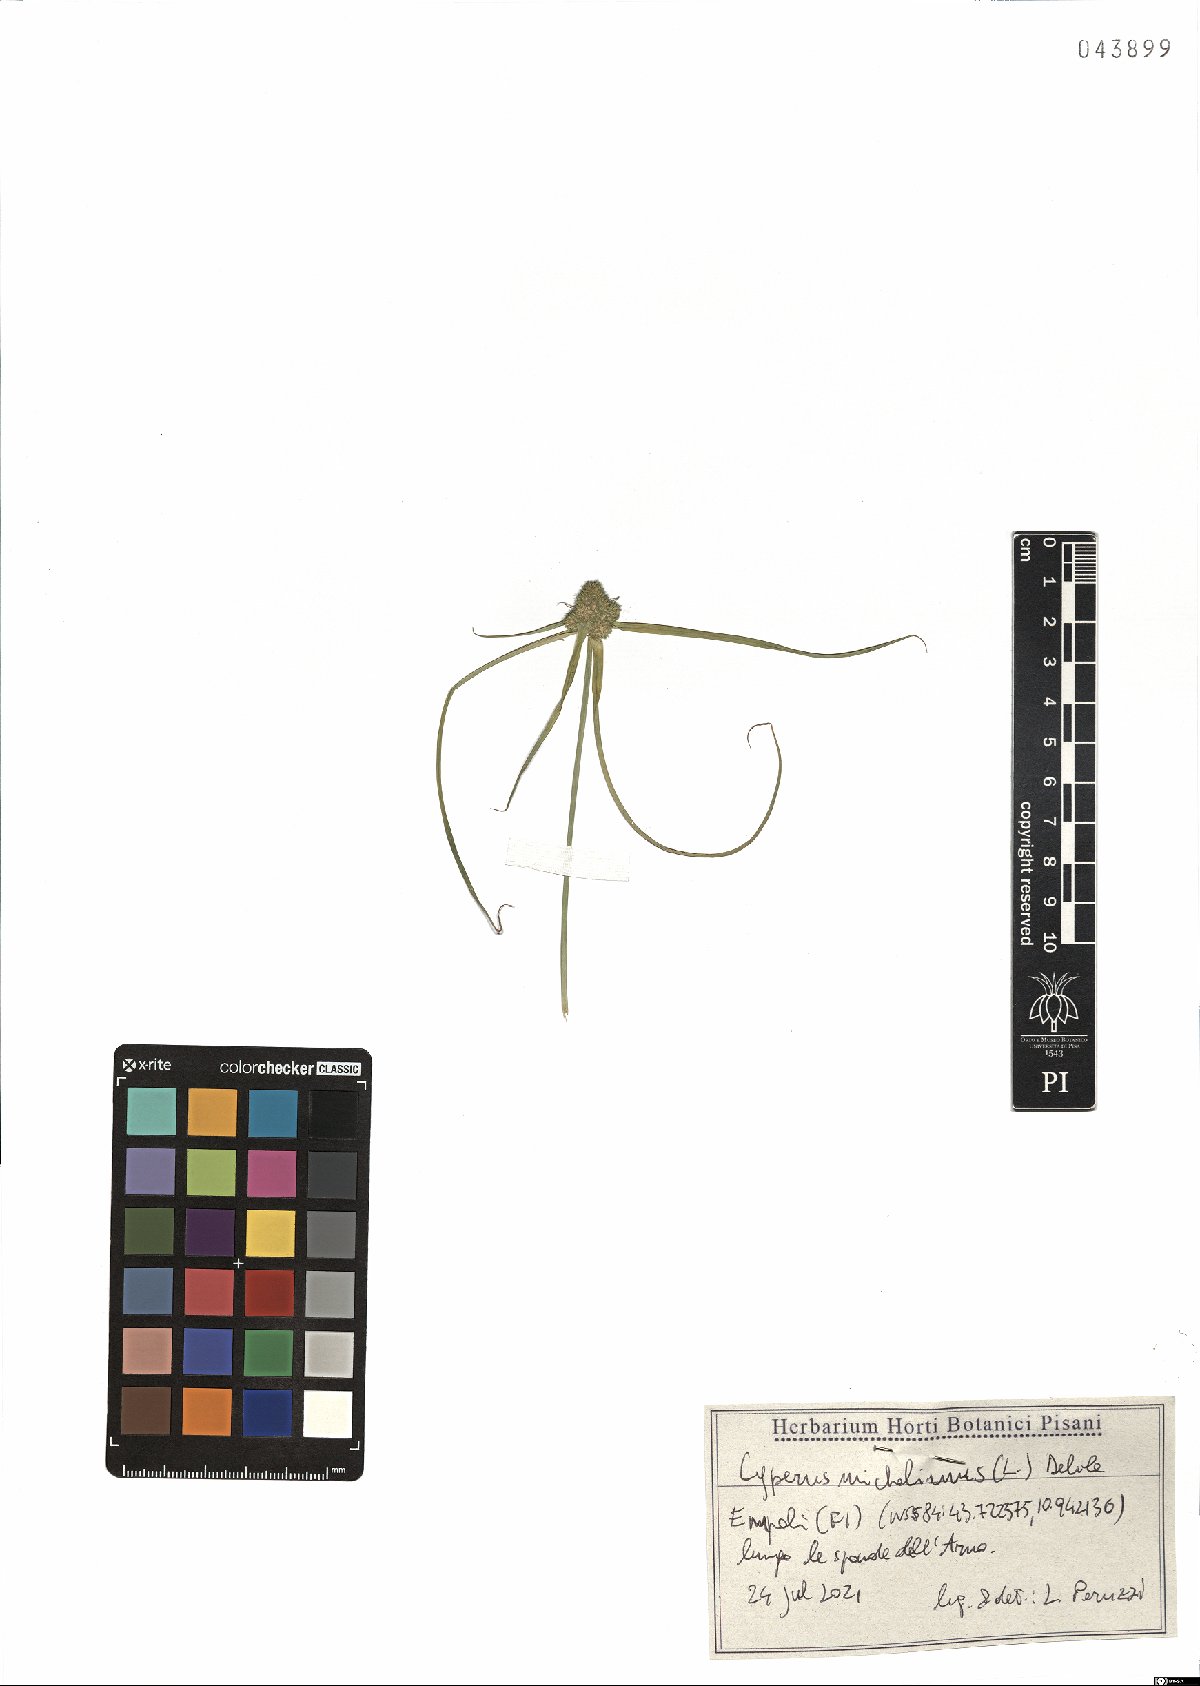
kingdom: Plantae
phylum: Tracheophyta
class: Liliopsida
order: Poales
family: Cyperaceae
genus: Cyperus
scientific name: Cyperus michelianus
